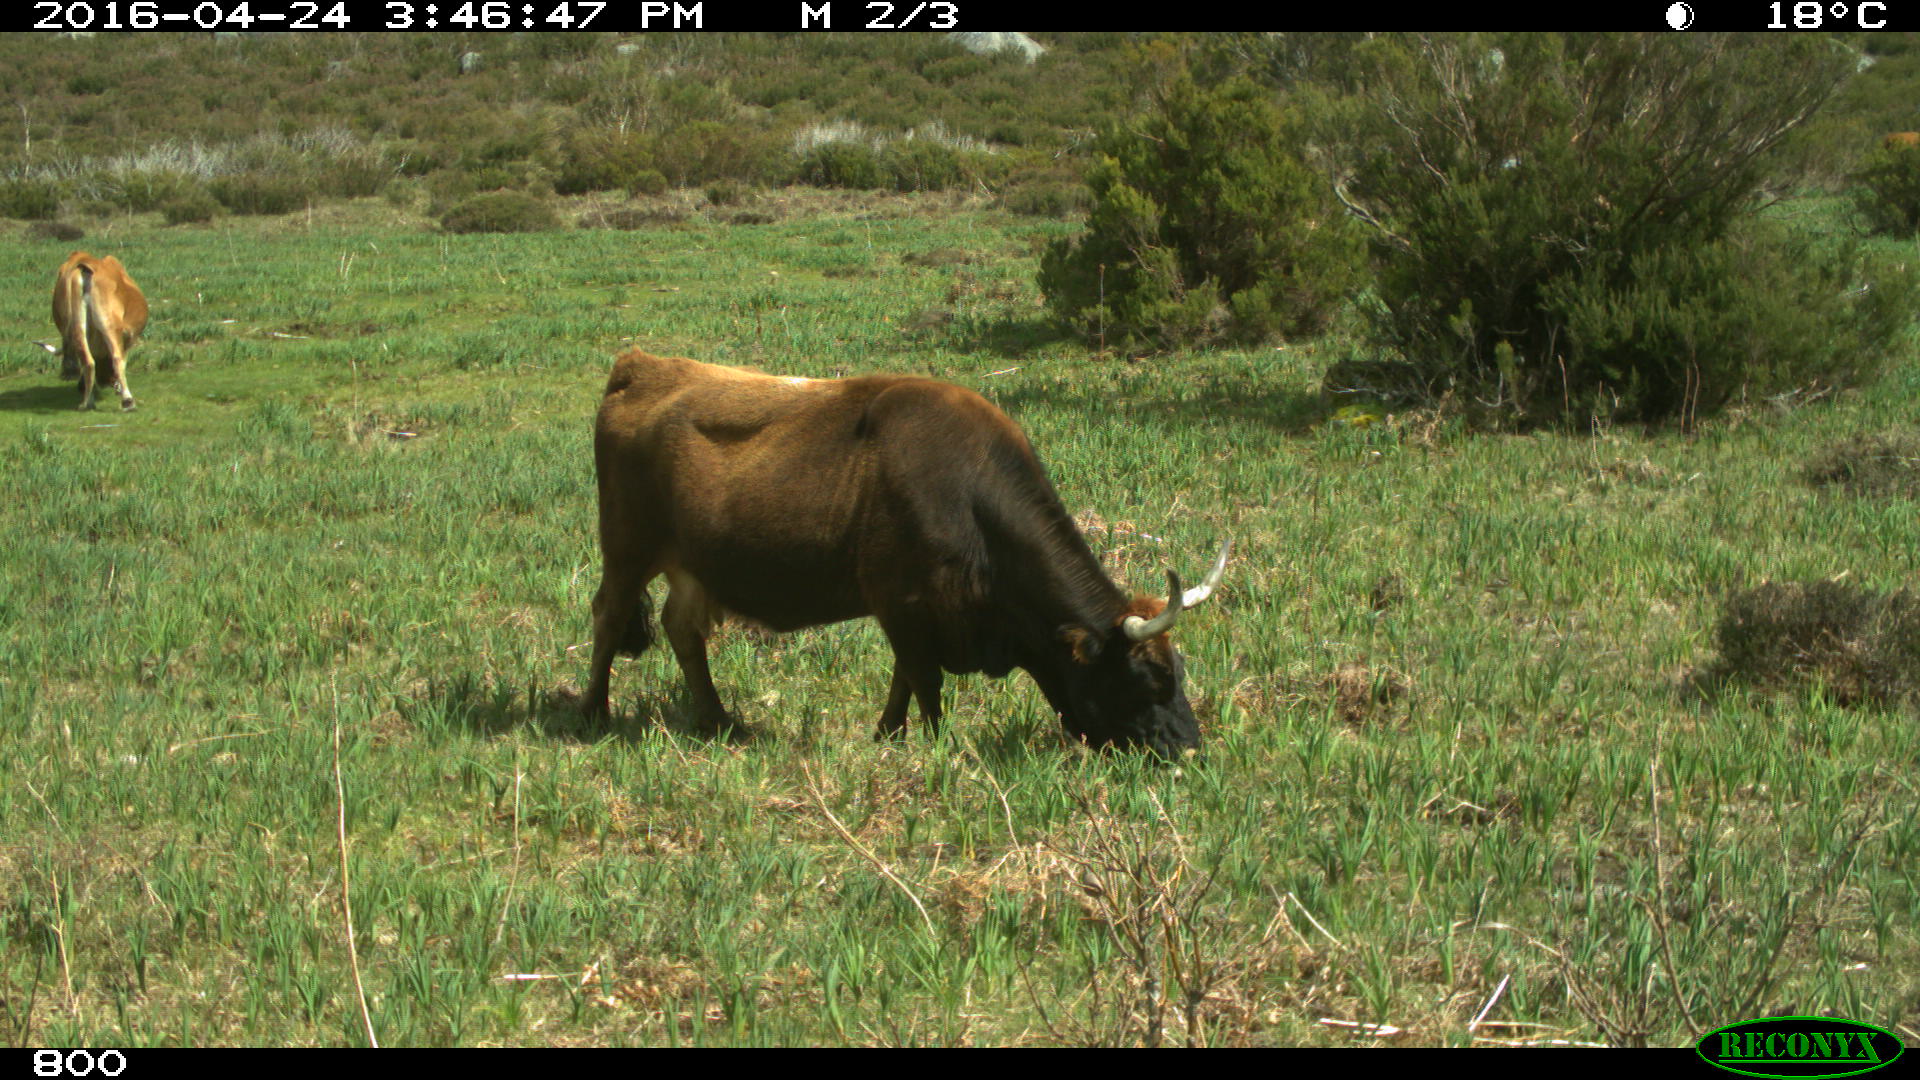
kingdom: Animalia
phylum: Chordata
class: Mammalia
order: Artiodactyla
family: Bovidae
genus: Bos
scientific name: Bos taurus
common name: Domesticated cattle
